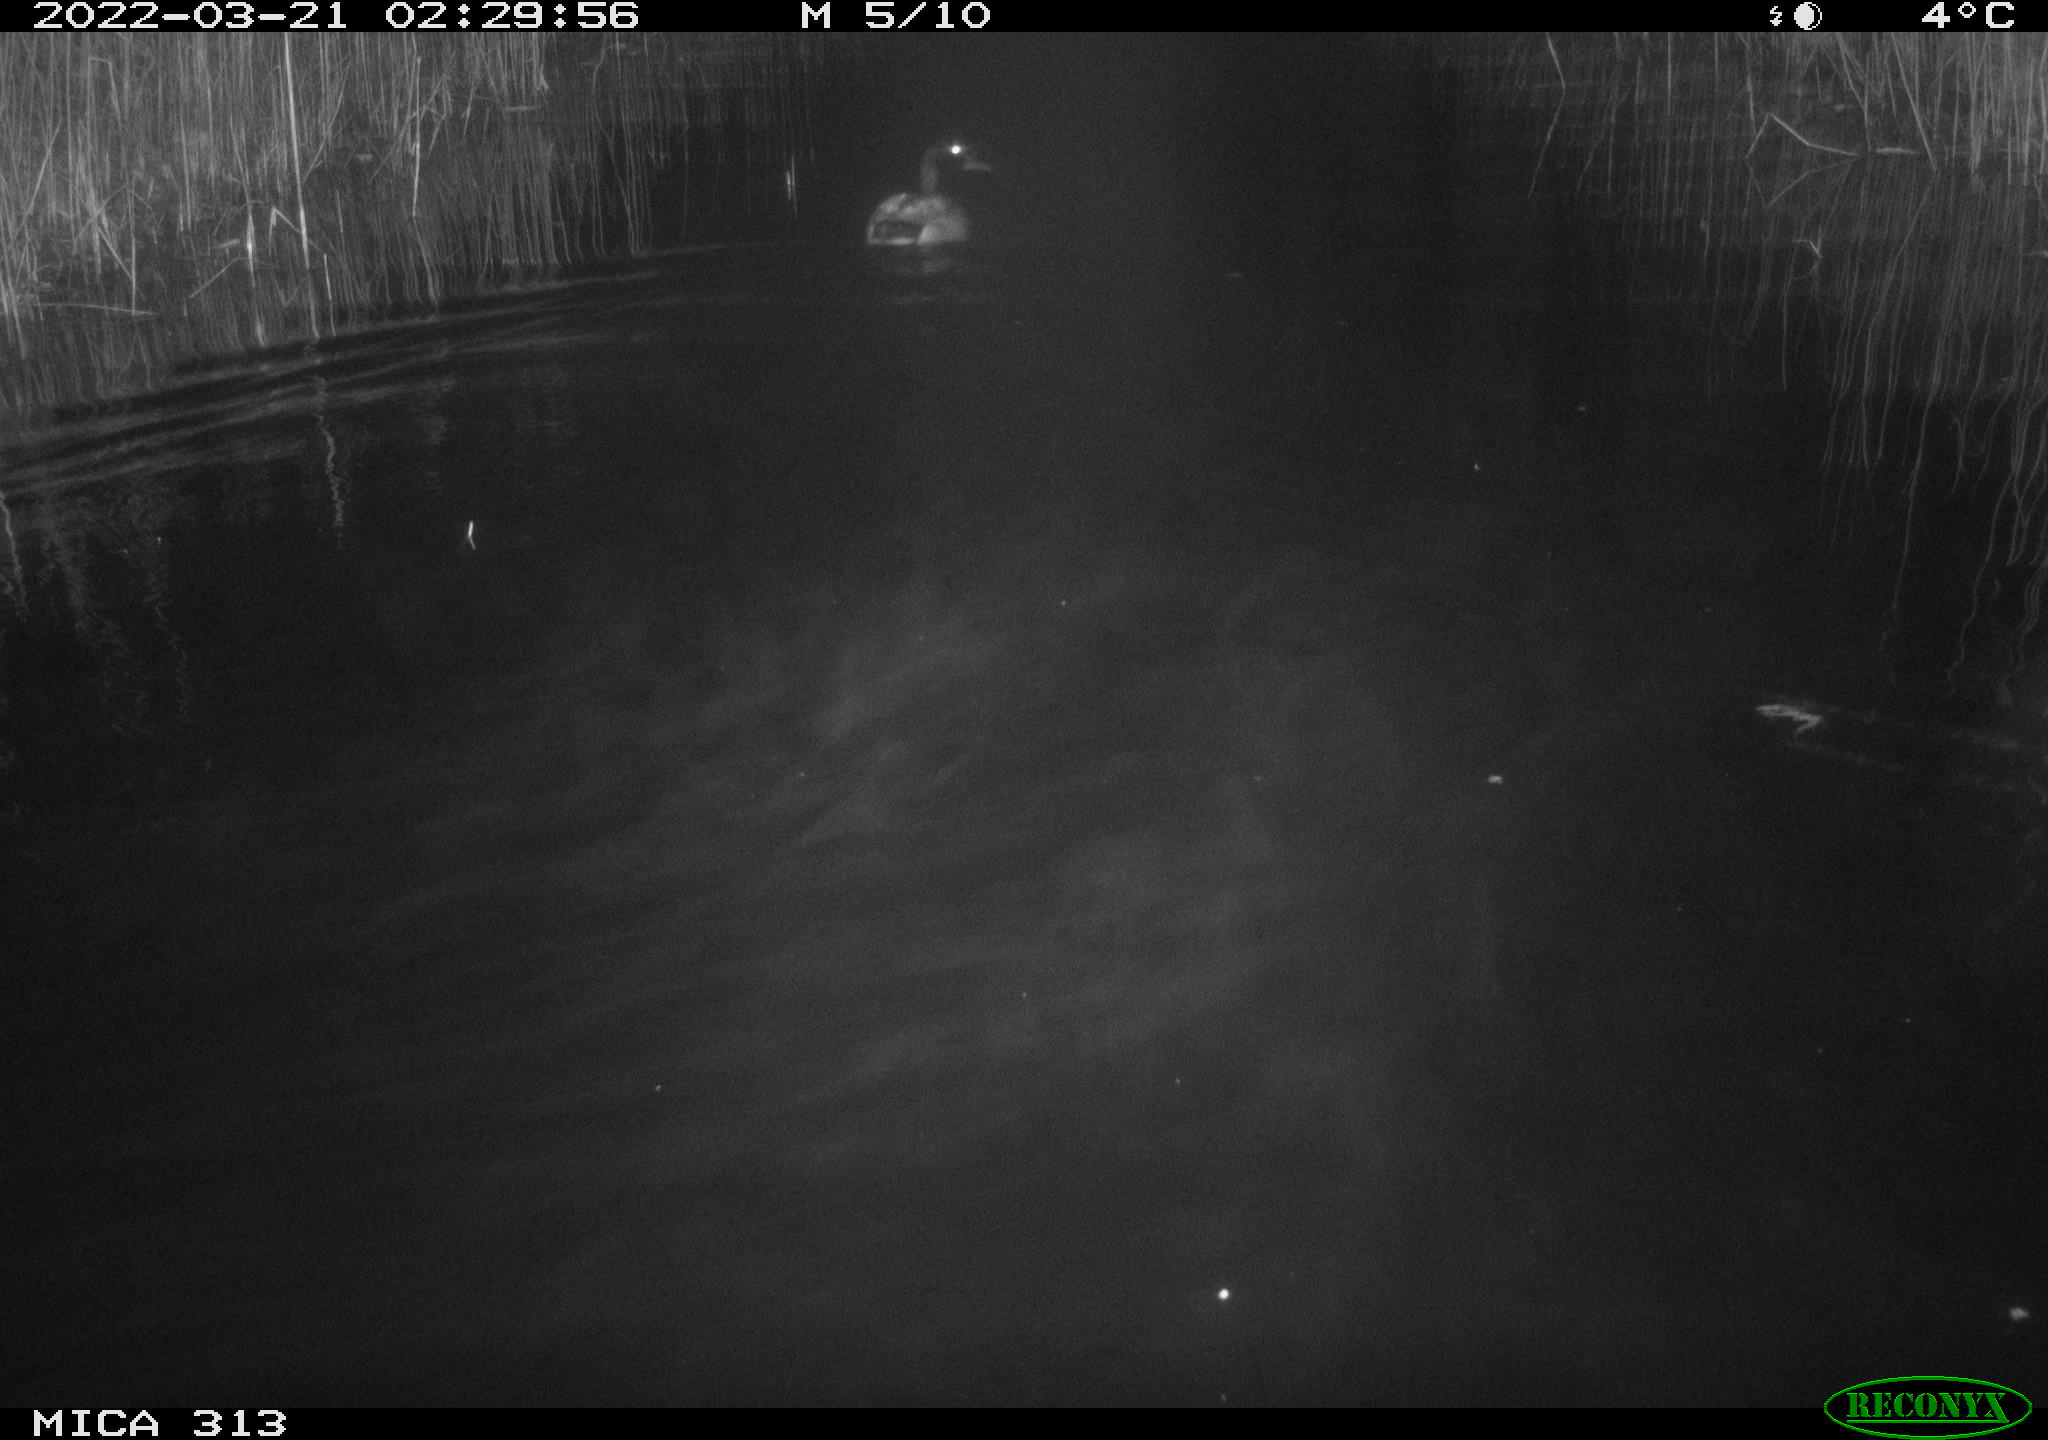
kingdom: Animalia
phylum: Chordata
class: Aves
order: Anseriformes
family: Anatidae
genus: Anas
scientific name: Anas platyrhynchos
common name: Mallard
